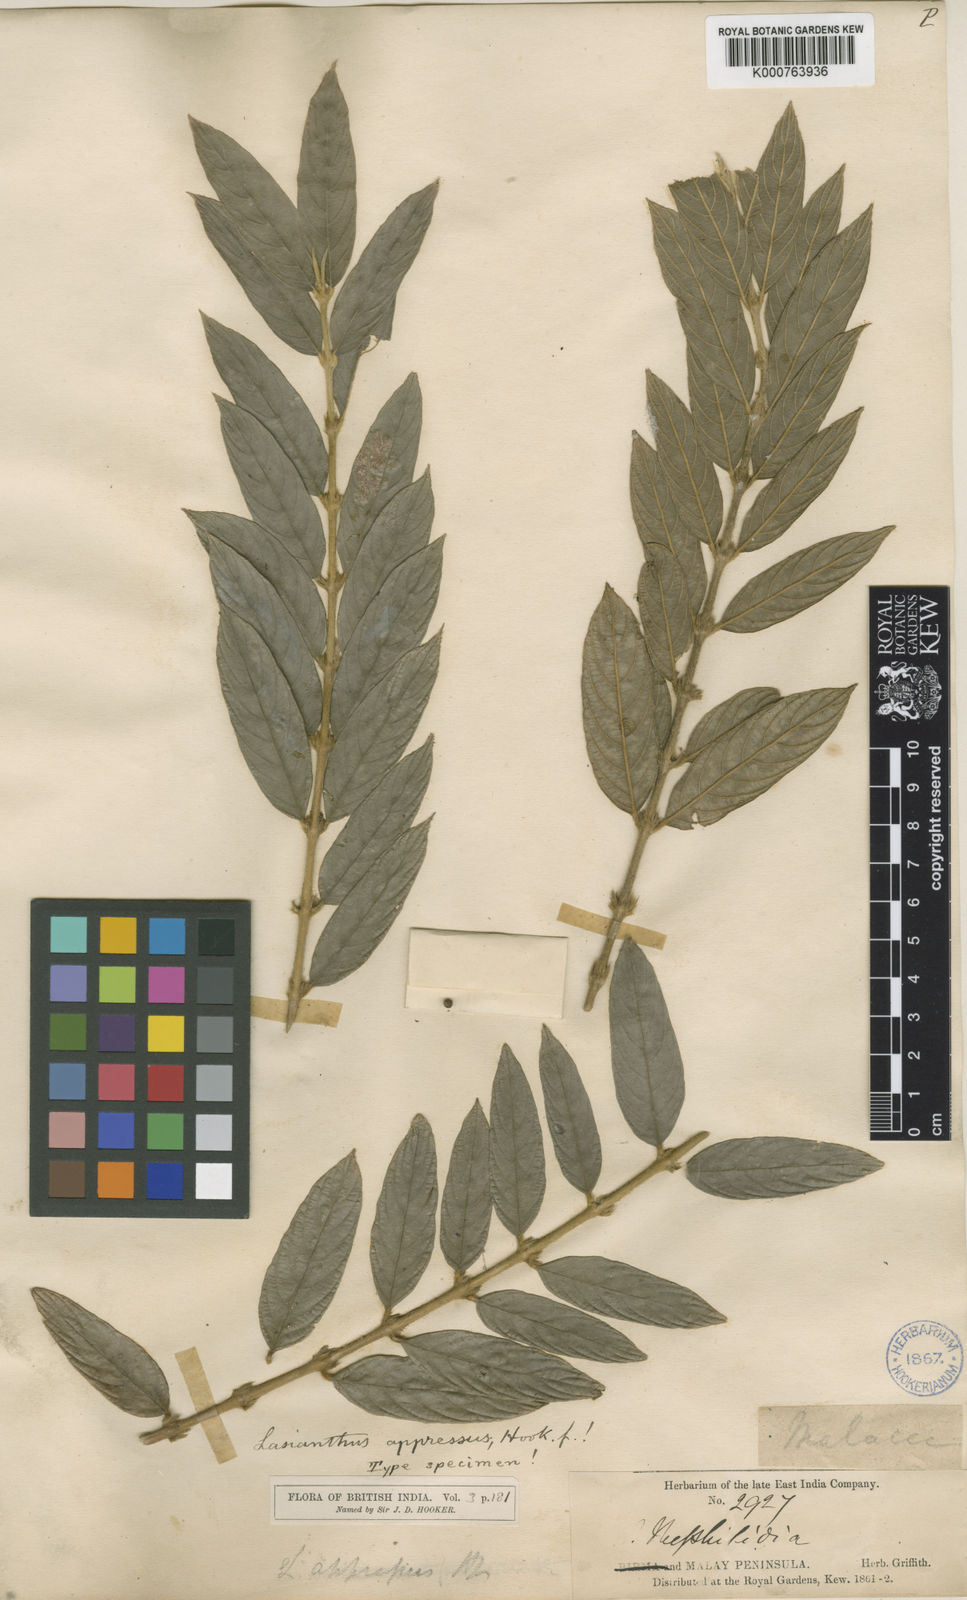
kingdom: Plantae
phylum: Tracheophyta
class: Magnoliopsida
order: Gentianales
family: Rubiaceae
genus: Lasianthus
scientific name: Lasianthus appressus
